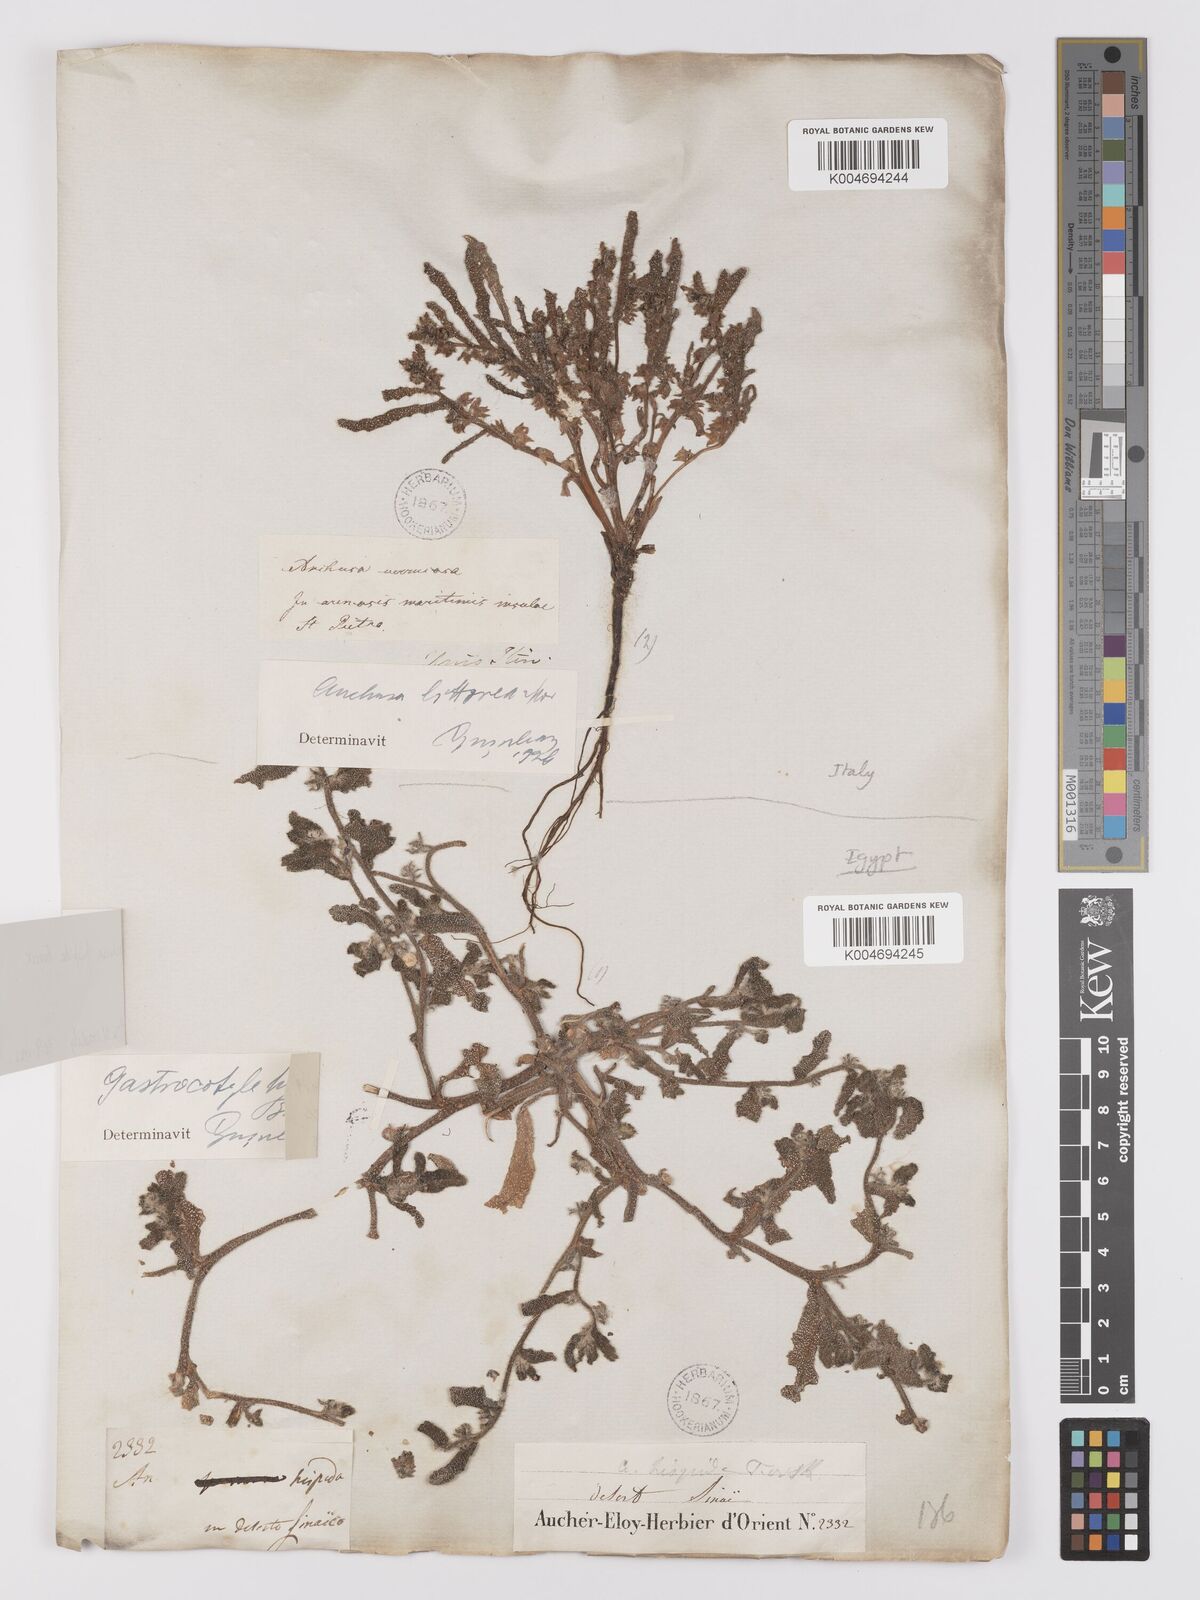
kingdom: Plantae
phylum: Tracheophyta
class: Magnoliopsida
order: Boraginales
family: Boraginaceae
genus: Gastrocotyle
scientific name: Gastrocotyle hispida
